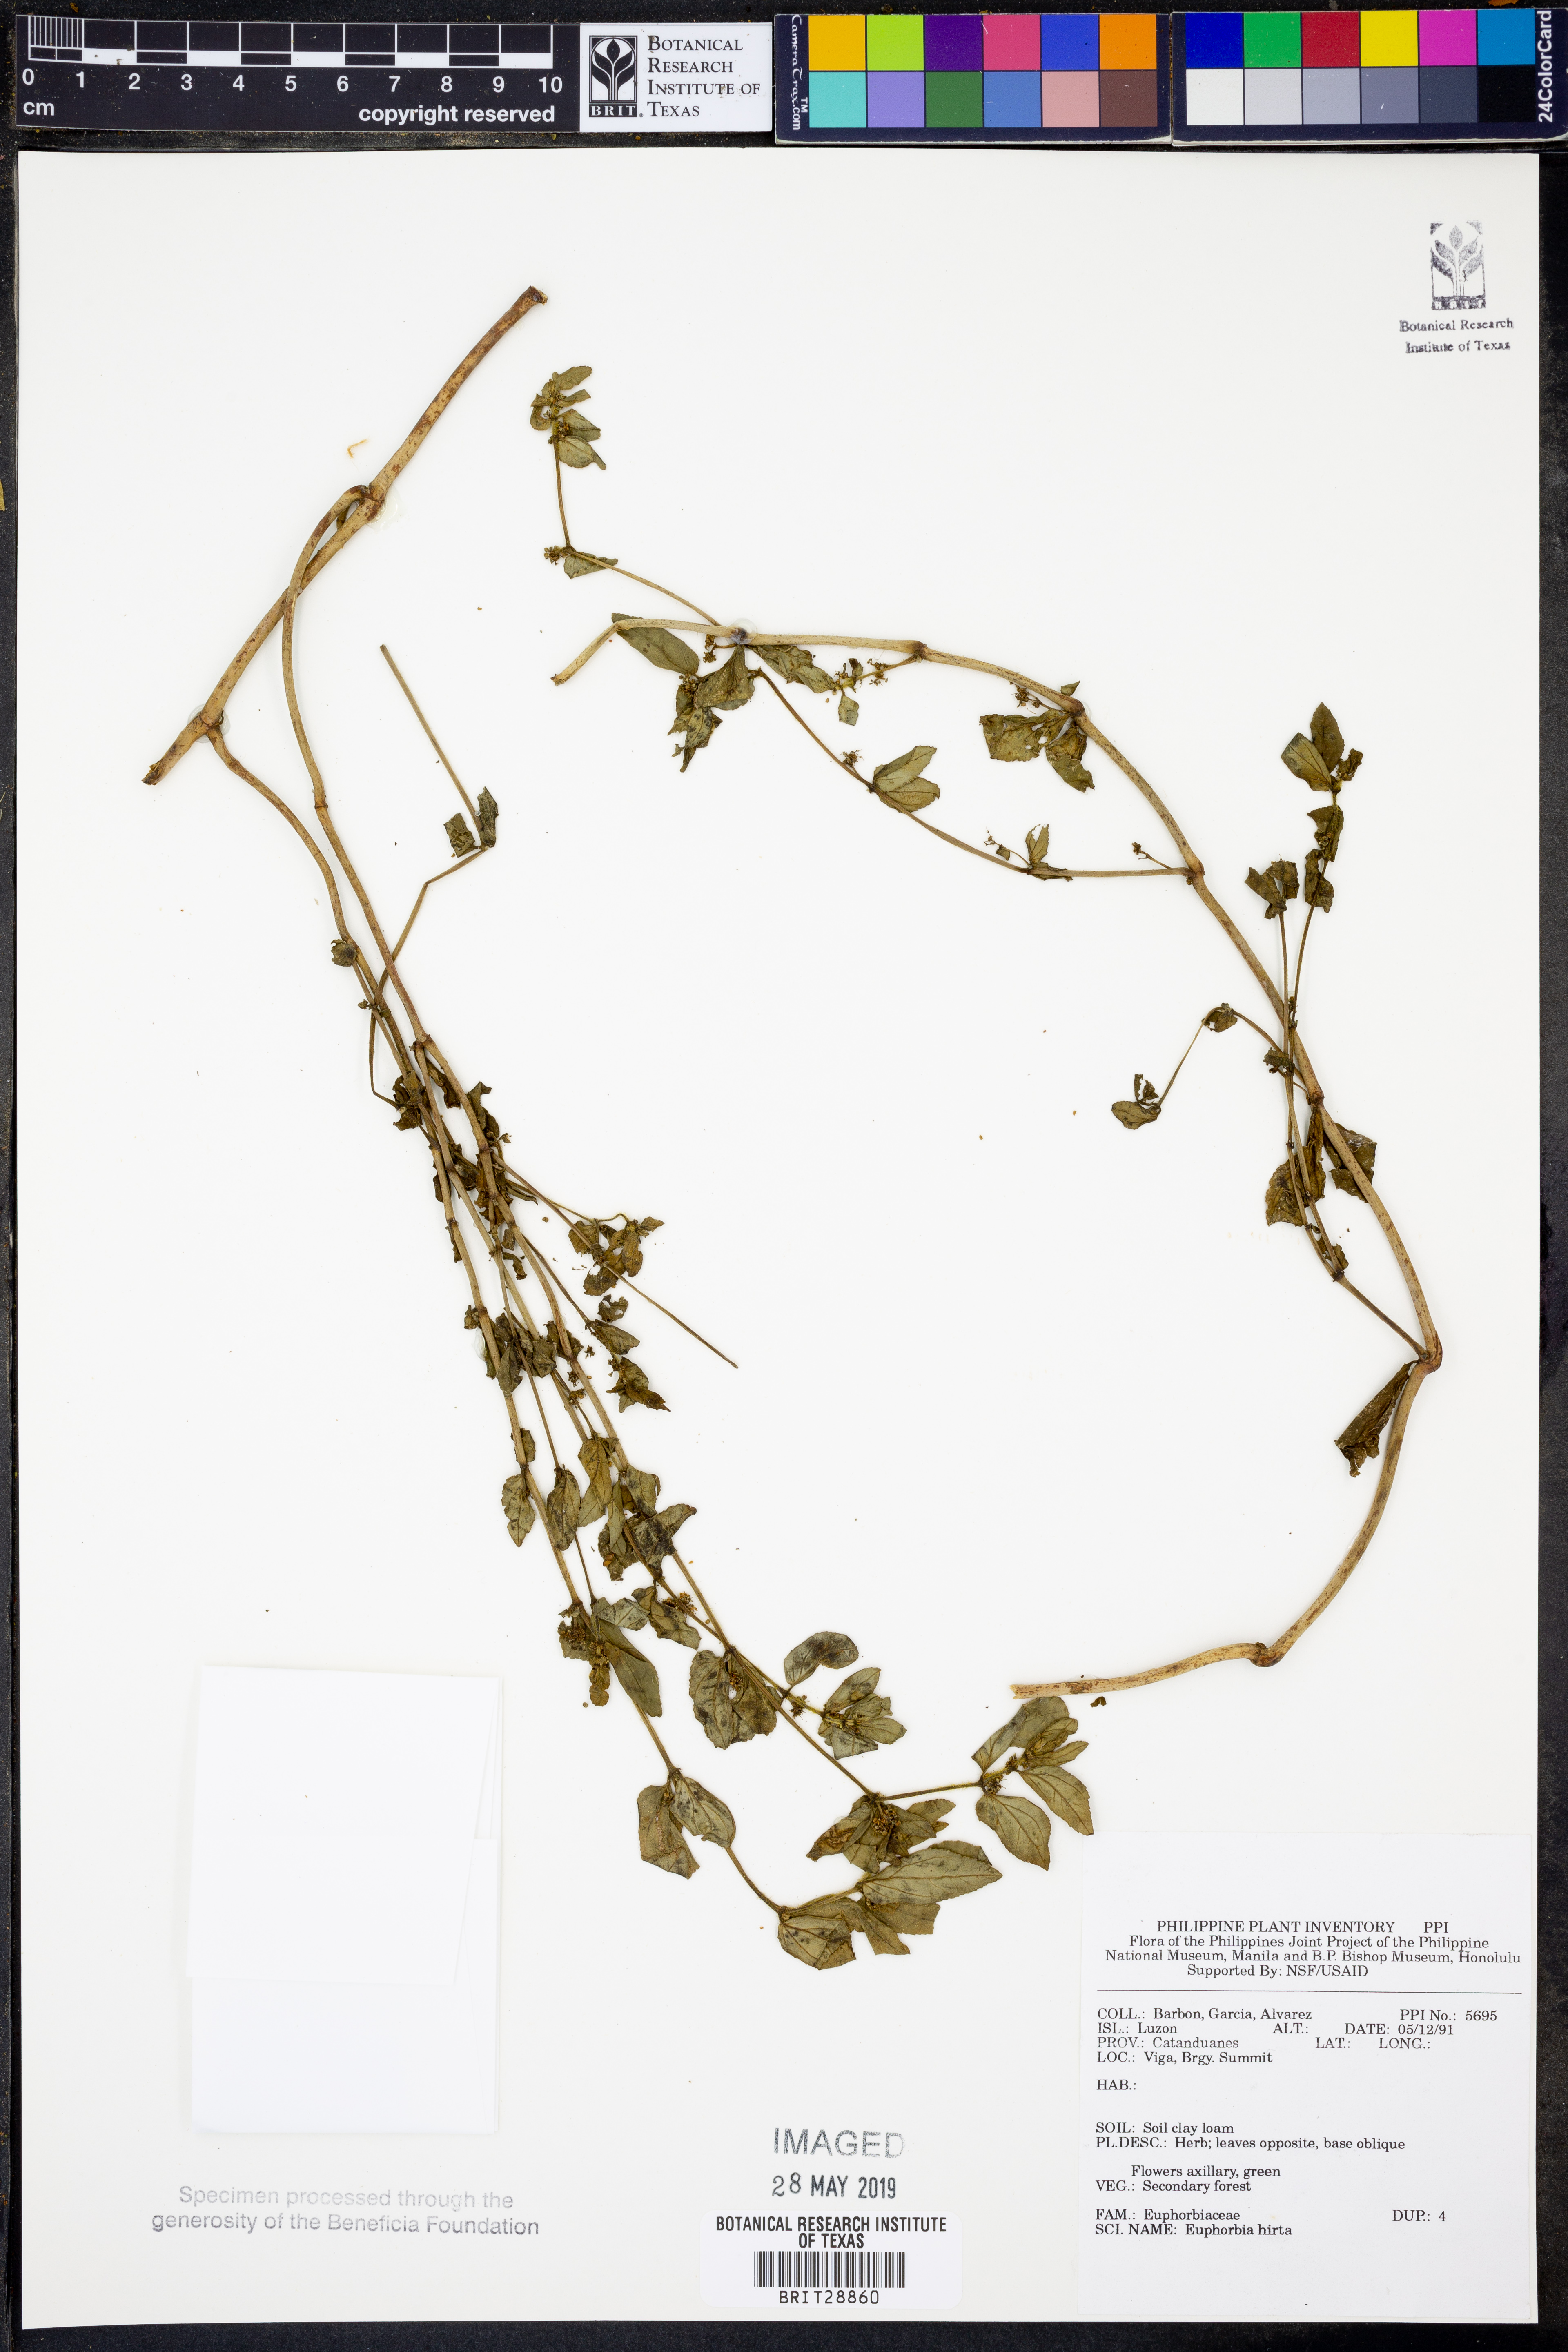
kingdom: Plantae
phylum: Tracheophyta
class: Magnoliopsida
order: Malpighiales
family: Euphorbiaceae
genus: Euphorbia
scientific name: Euphorbia hirta
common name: Pillpod sandmat
